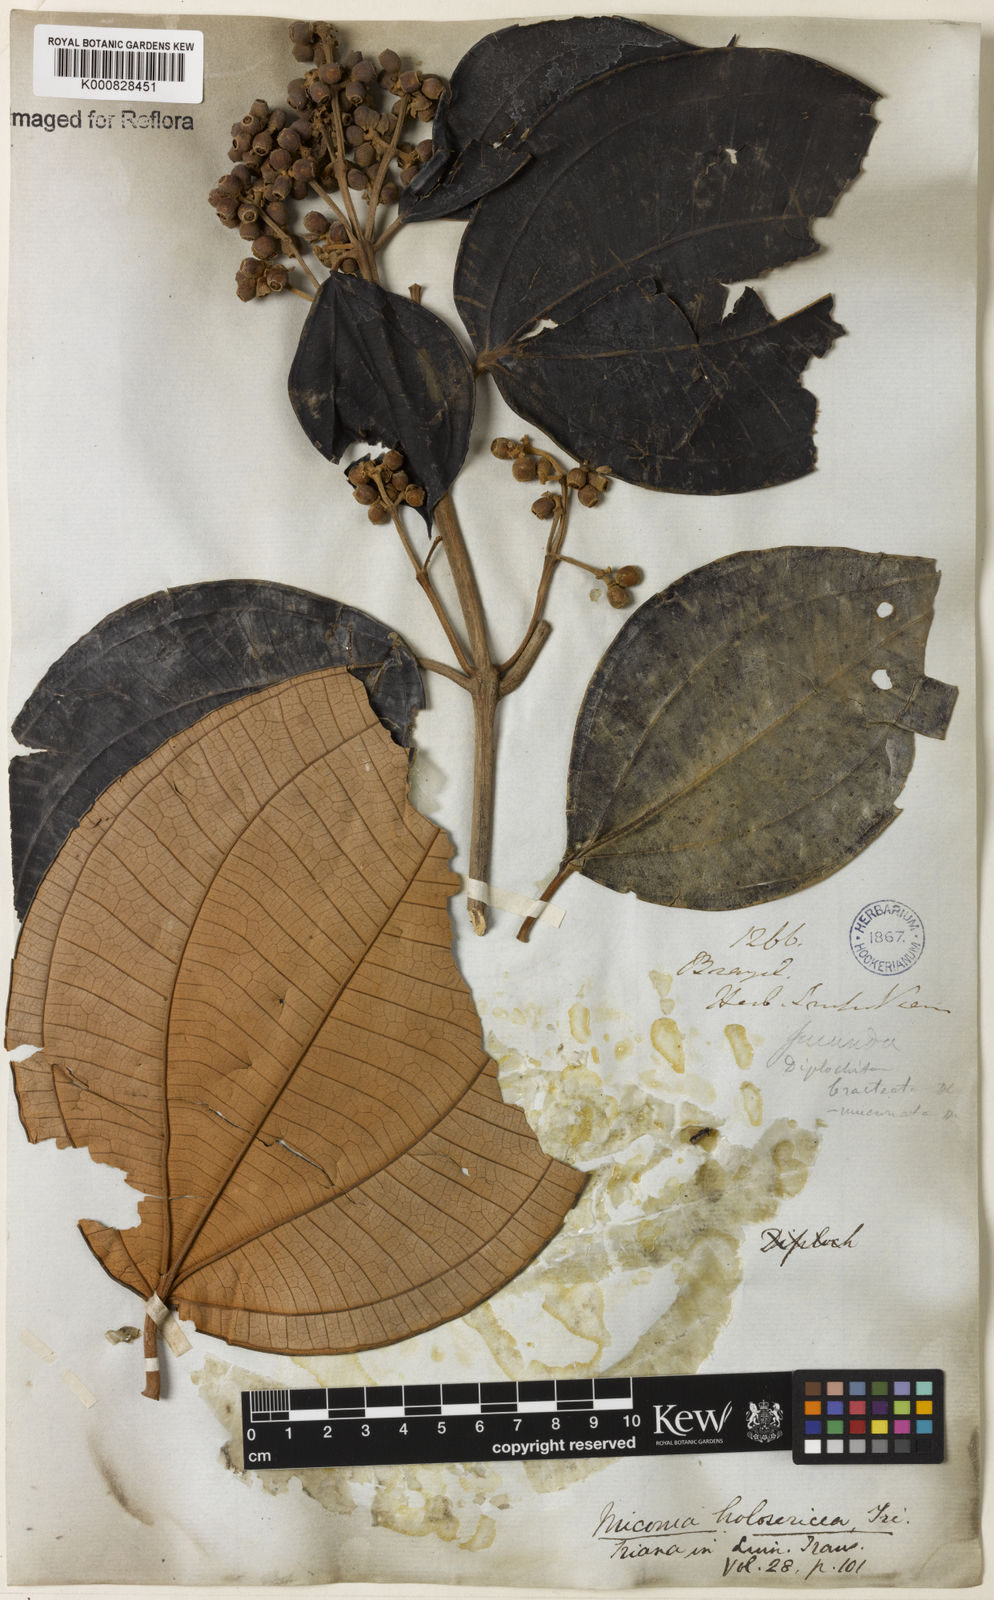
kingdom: Plantae
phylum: Tracheophyta
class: Magnoliopsida
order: Myrtales
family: Melastomataceae
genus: Miconia
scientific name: Miconia holosericea
